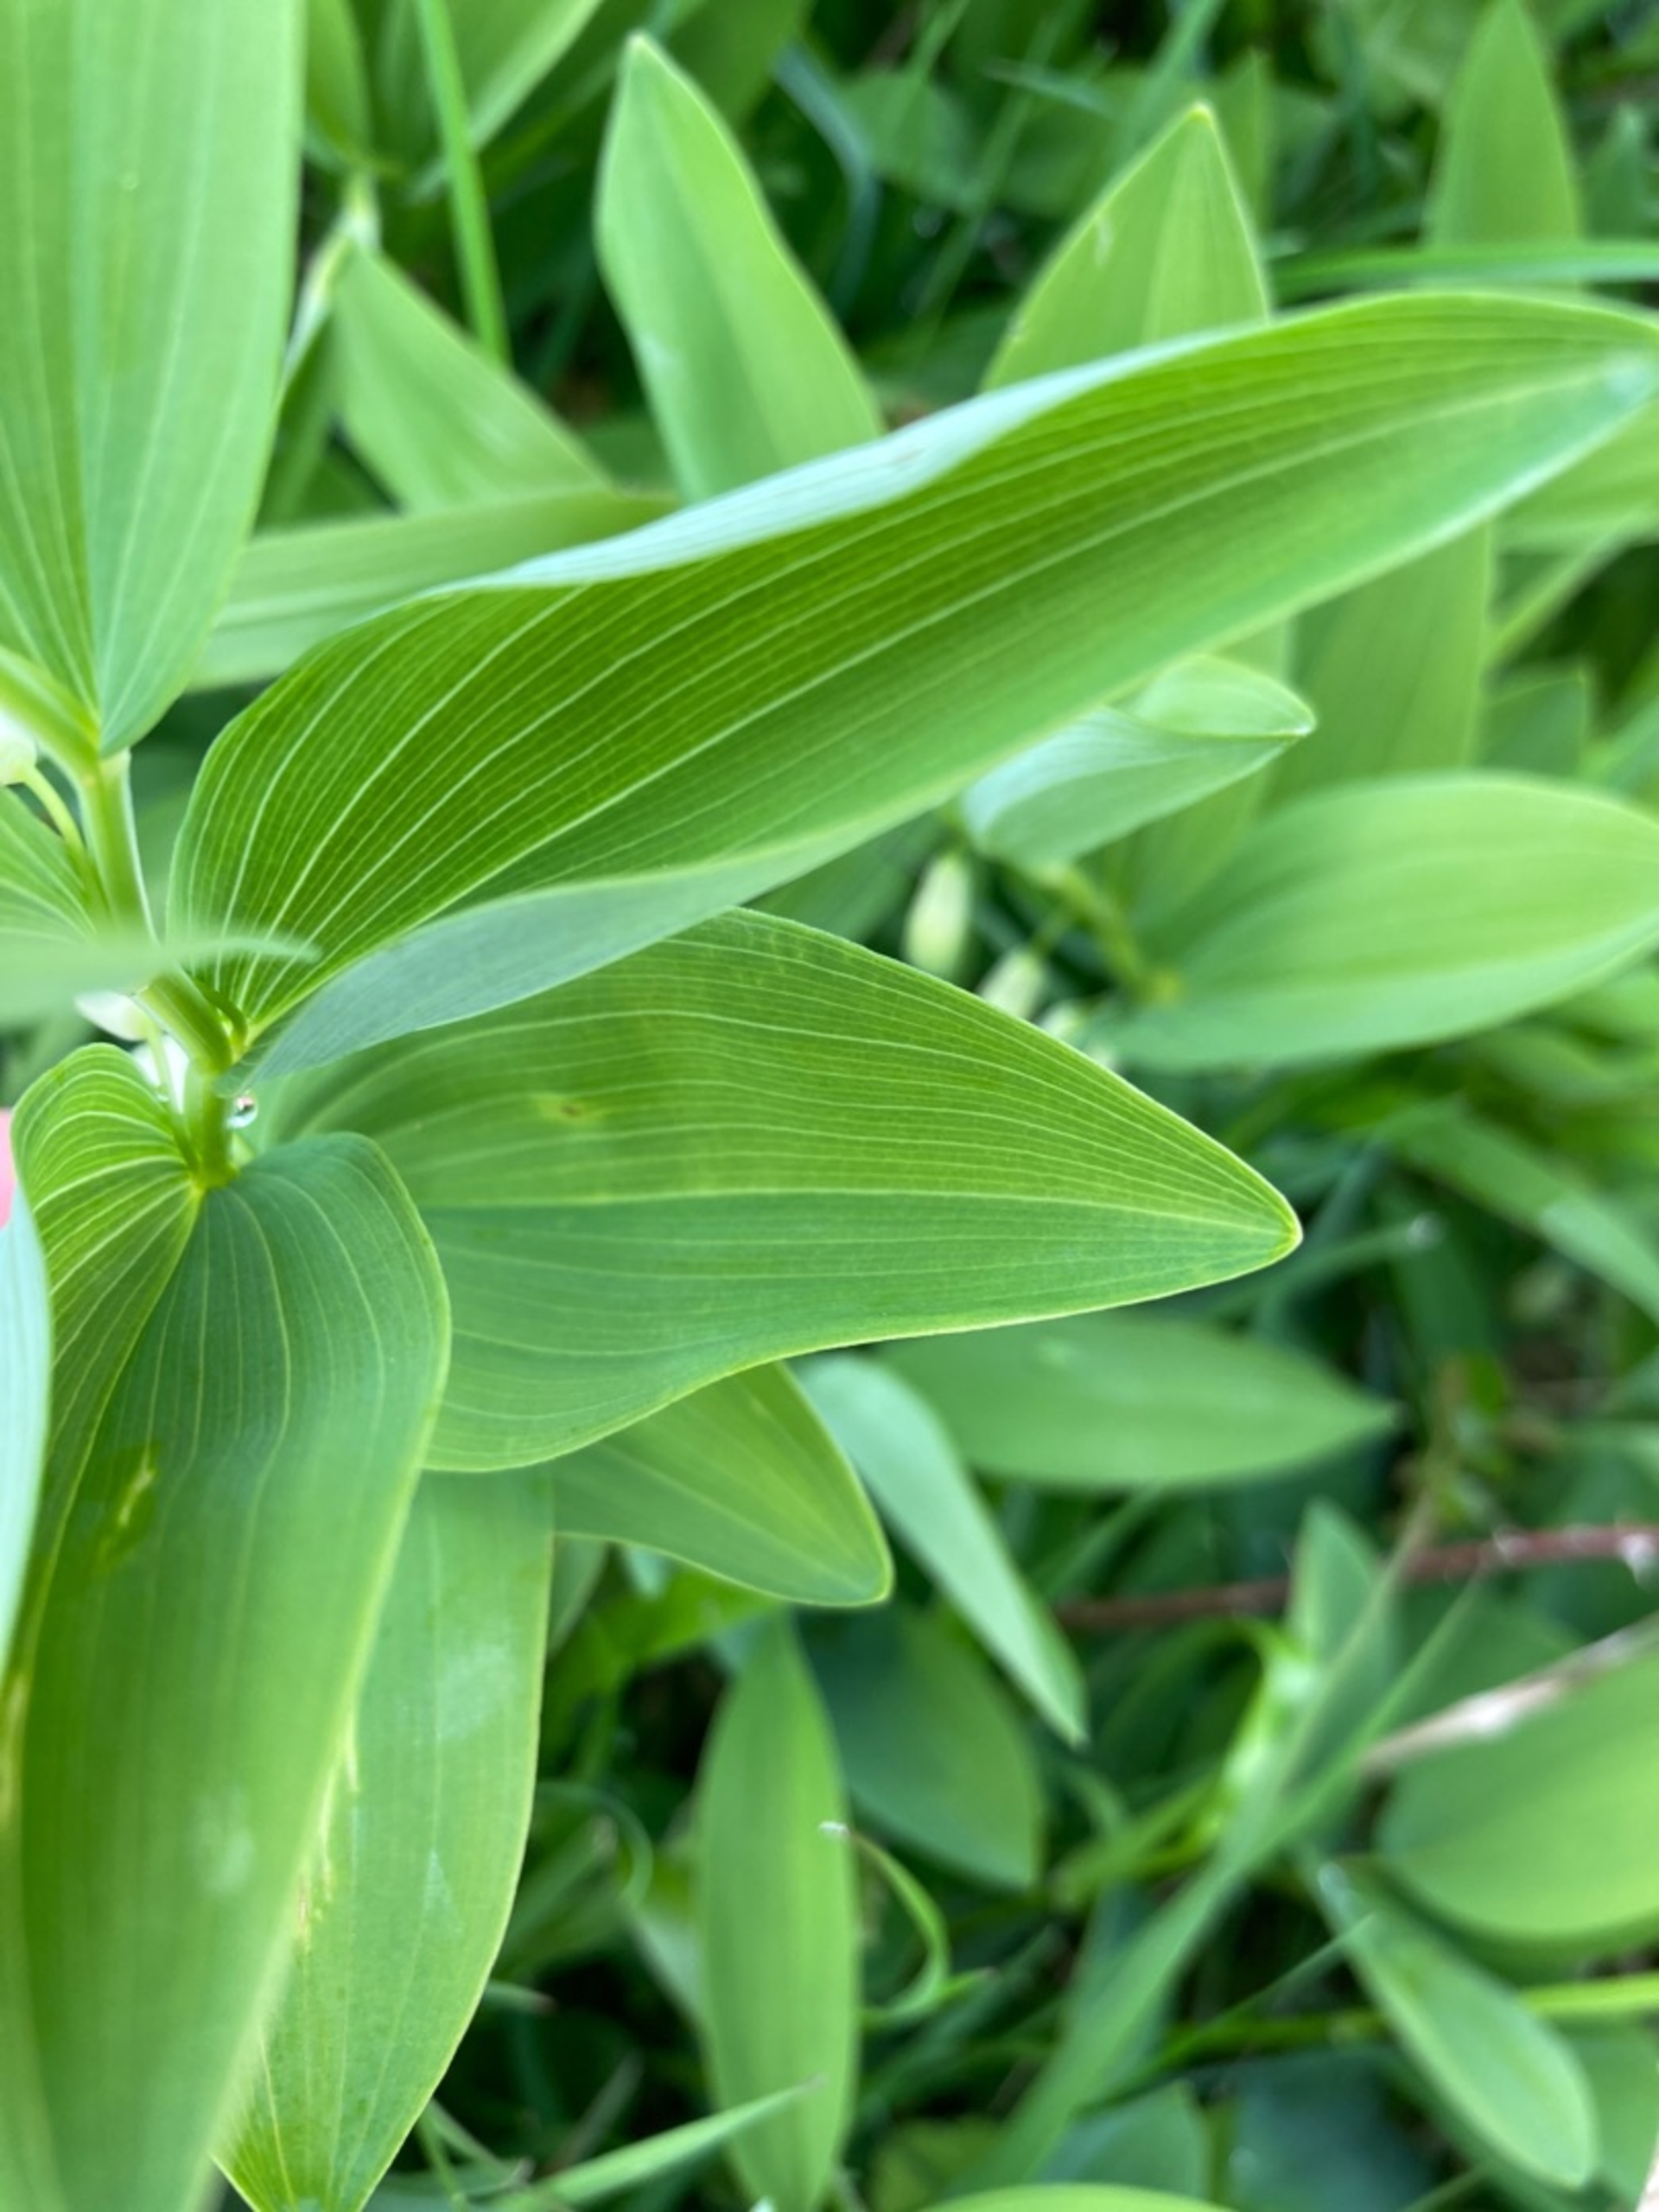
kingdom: Plantae
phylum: Tracheophyta
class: Liliopsida
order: Asparagales
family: Asparagaceae
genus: Polygonatum
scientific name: Polygonatum odoratum
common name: Kantet konval
